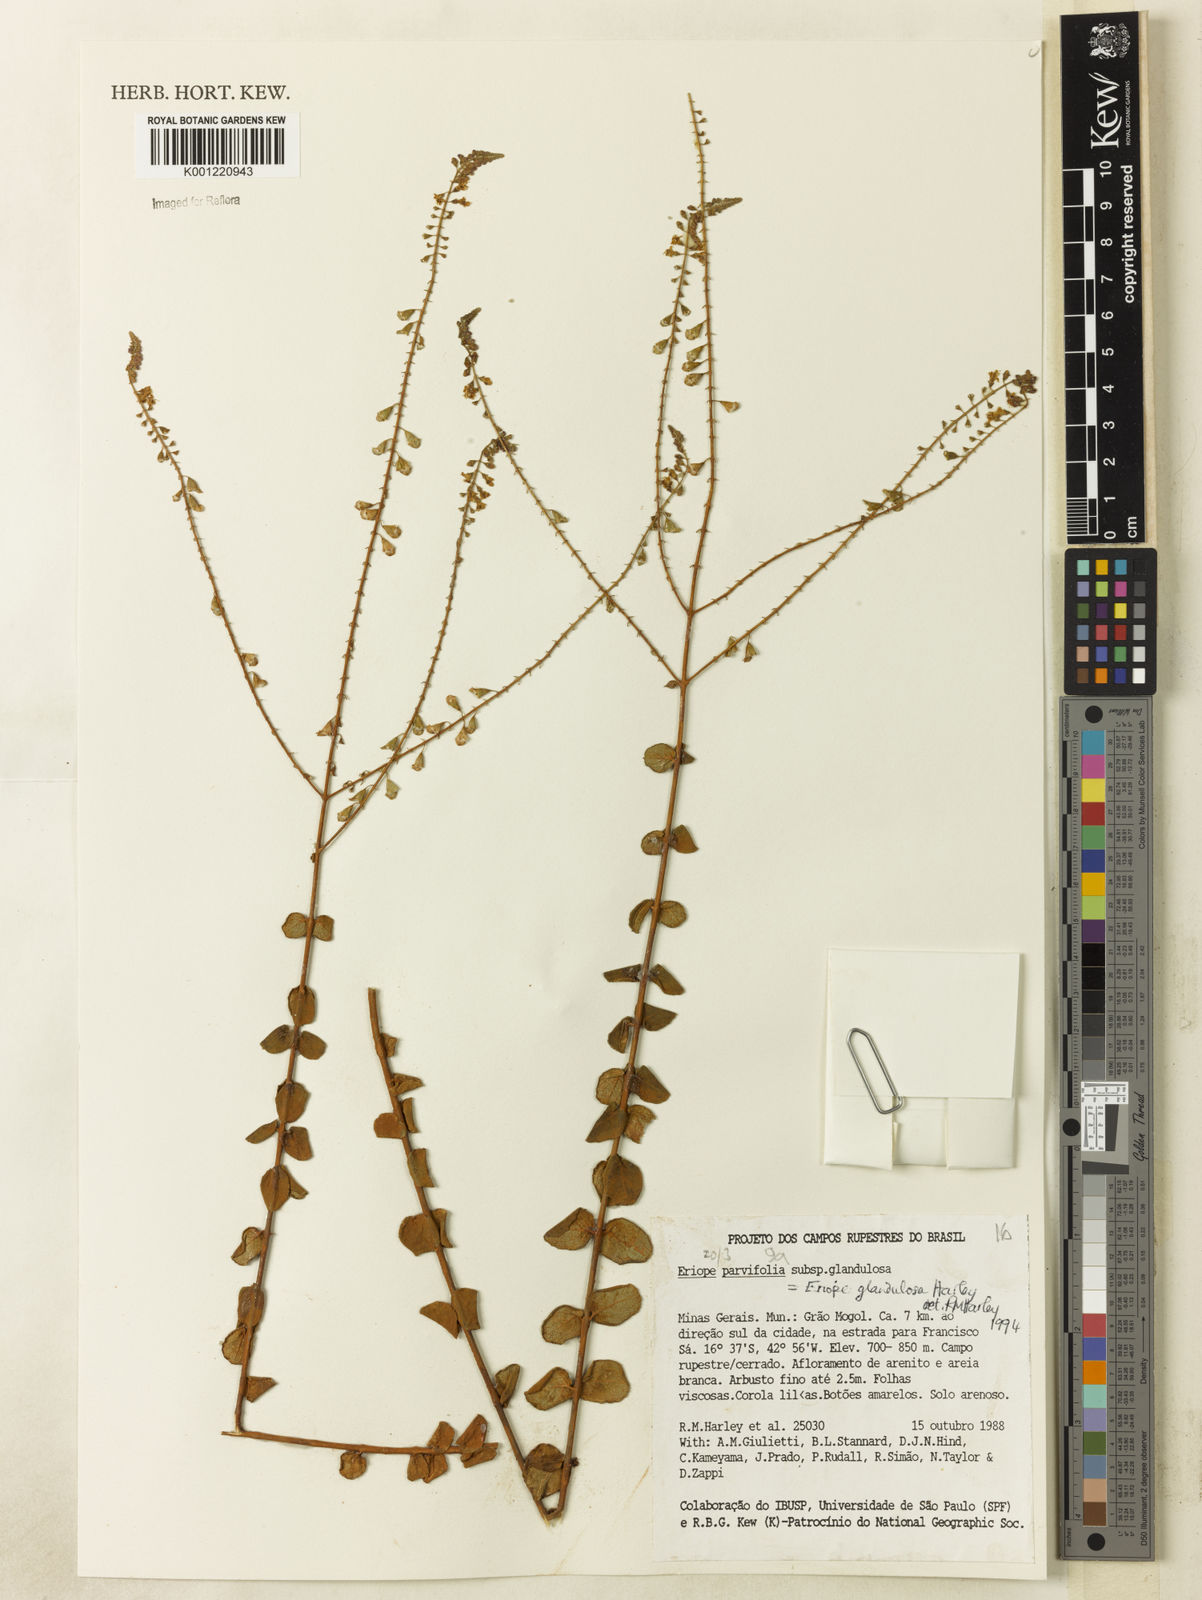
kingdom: Plantae
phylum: Tracheophyta
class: Magnoliopsida
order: Lamiales
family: Lamiaceae
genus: Eriope
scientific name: Eriope glandulosa
